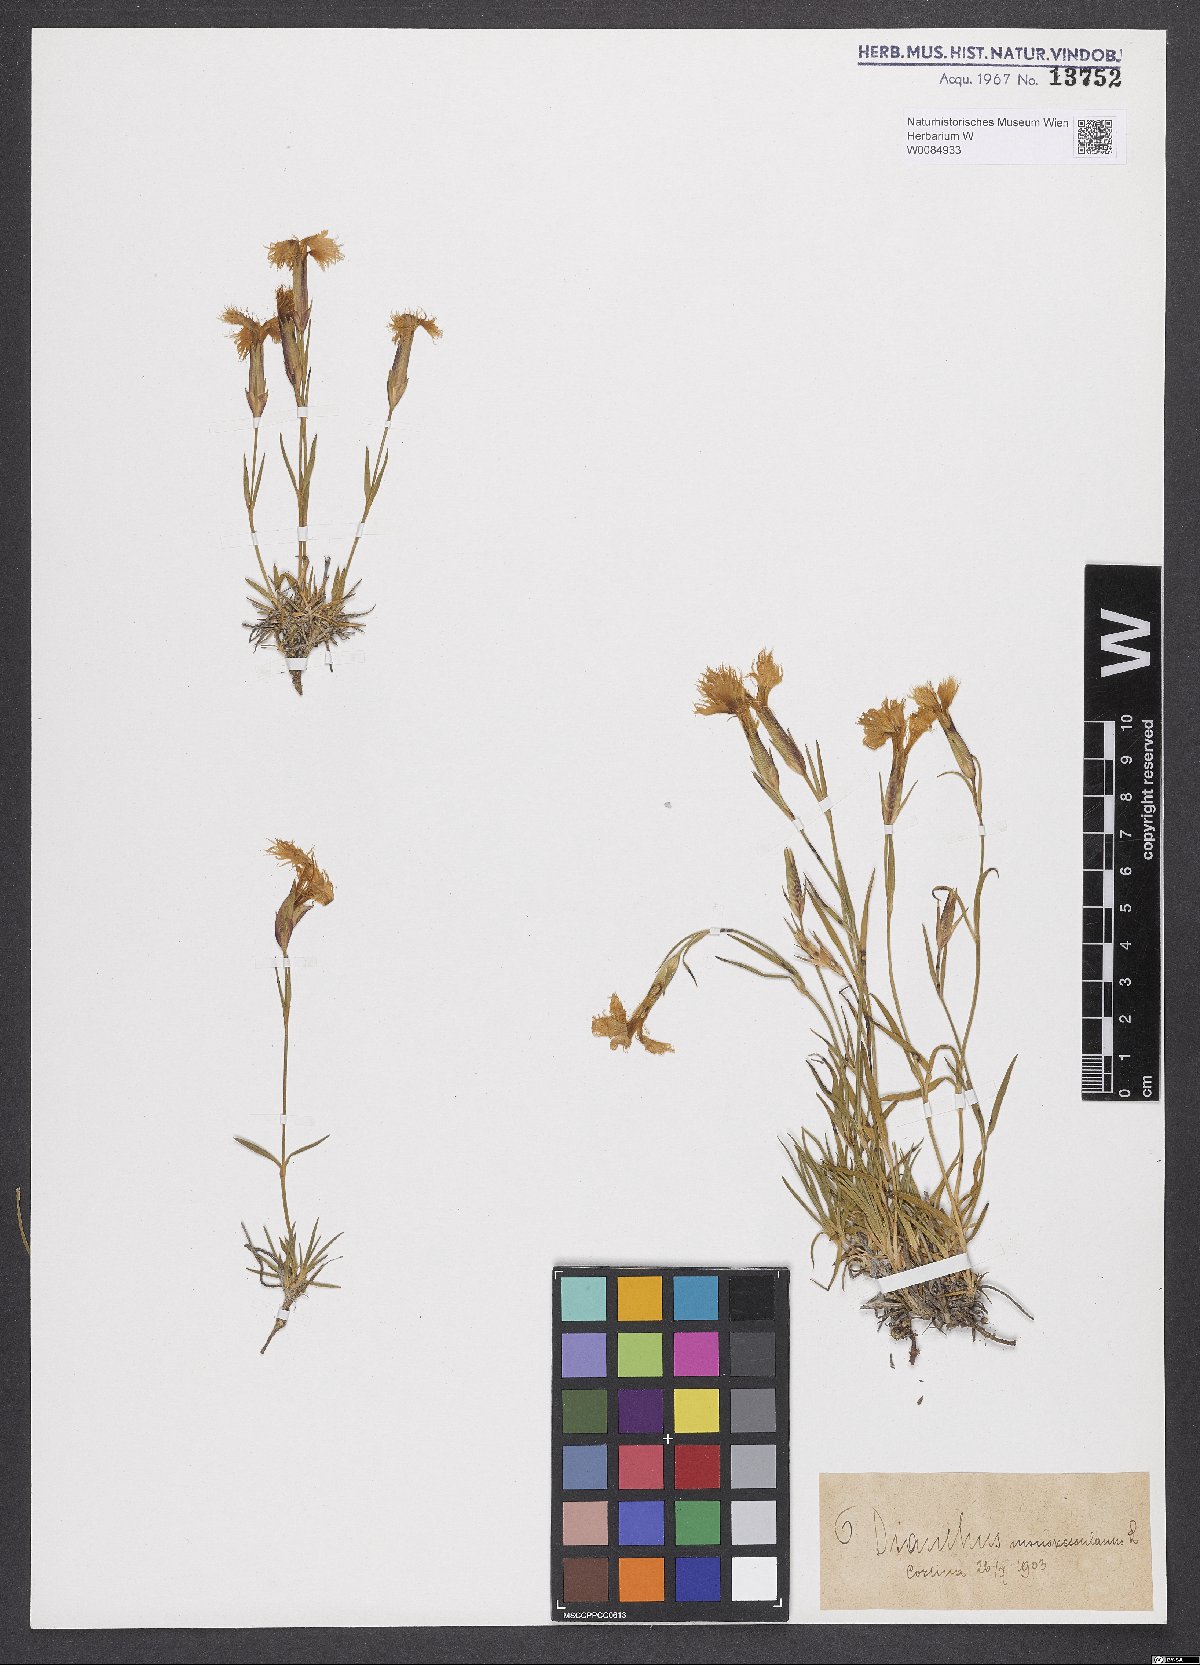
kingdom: Plantae
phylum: Tracheophyta
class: Magnoliopsida
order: Caryophyllales
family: Caryophyllaceae
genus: Dianthus
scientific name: Dianthus hyssopifolius
